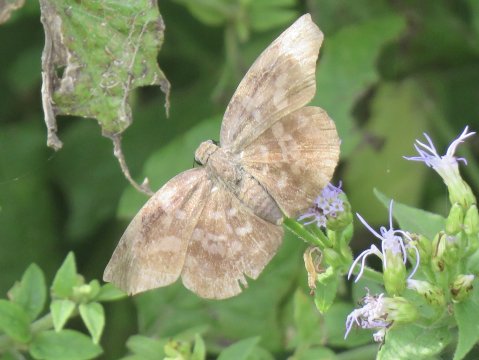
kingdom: Animalia
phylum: Arthropoda
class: Insecta
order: Lepidoptera
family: Hesperiidae
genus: Achlyodes
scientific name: Achlyodes thraso
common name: Sickle-winged Skipper
